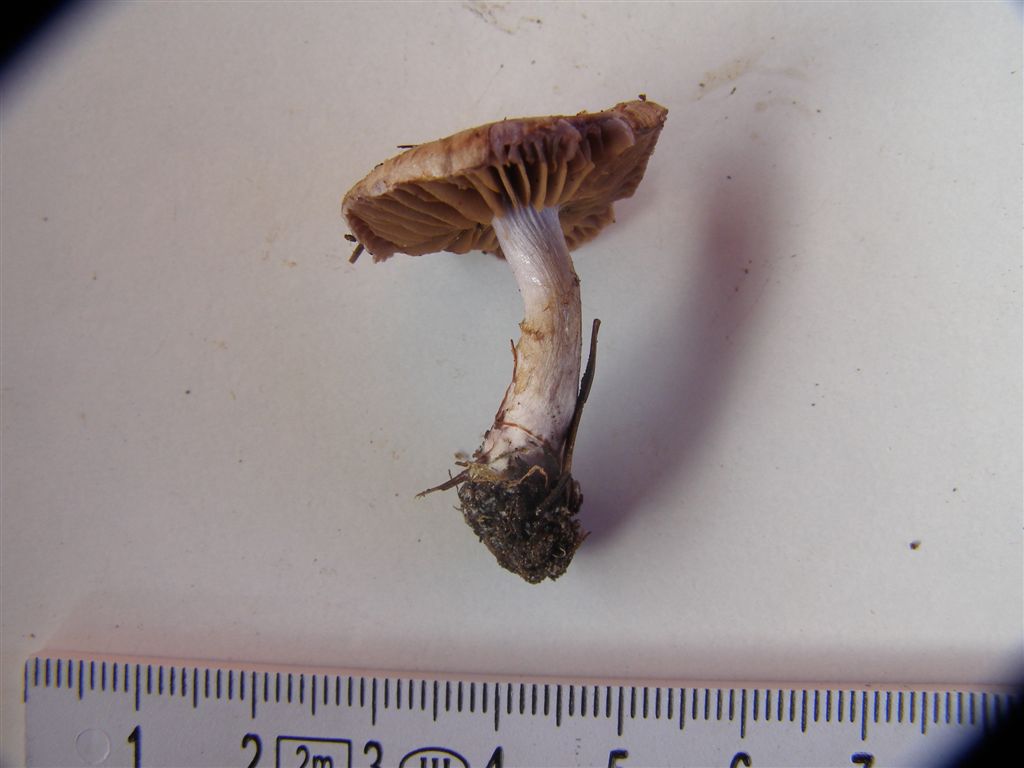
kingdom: Fungi
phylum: Basidiomycota
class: Agaricomycetes
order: Agaricales
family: Cortinariaceae
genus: Thaxterogaster
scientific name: Thaxterogaster subporphyropus
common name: ametyst-slørhat
